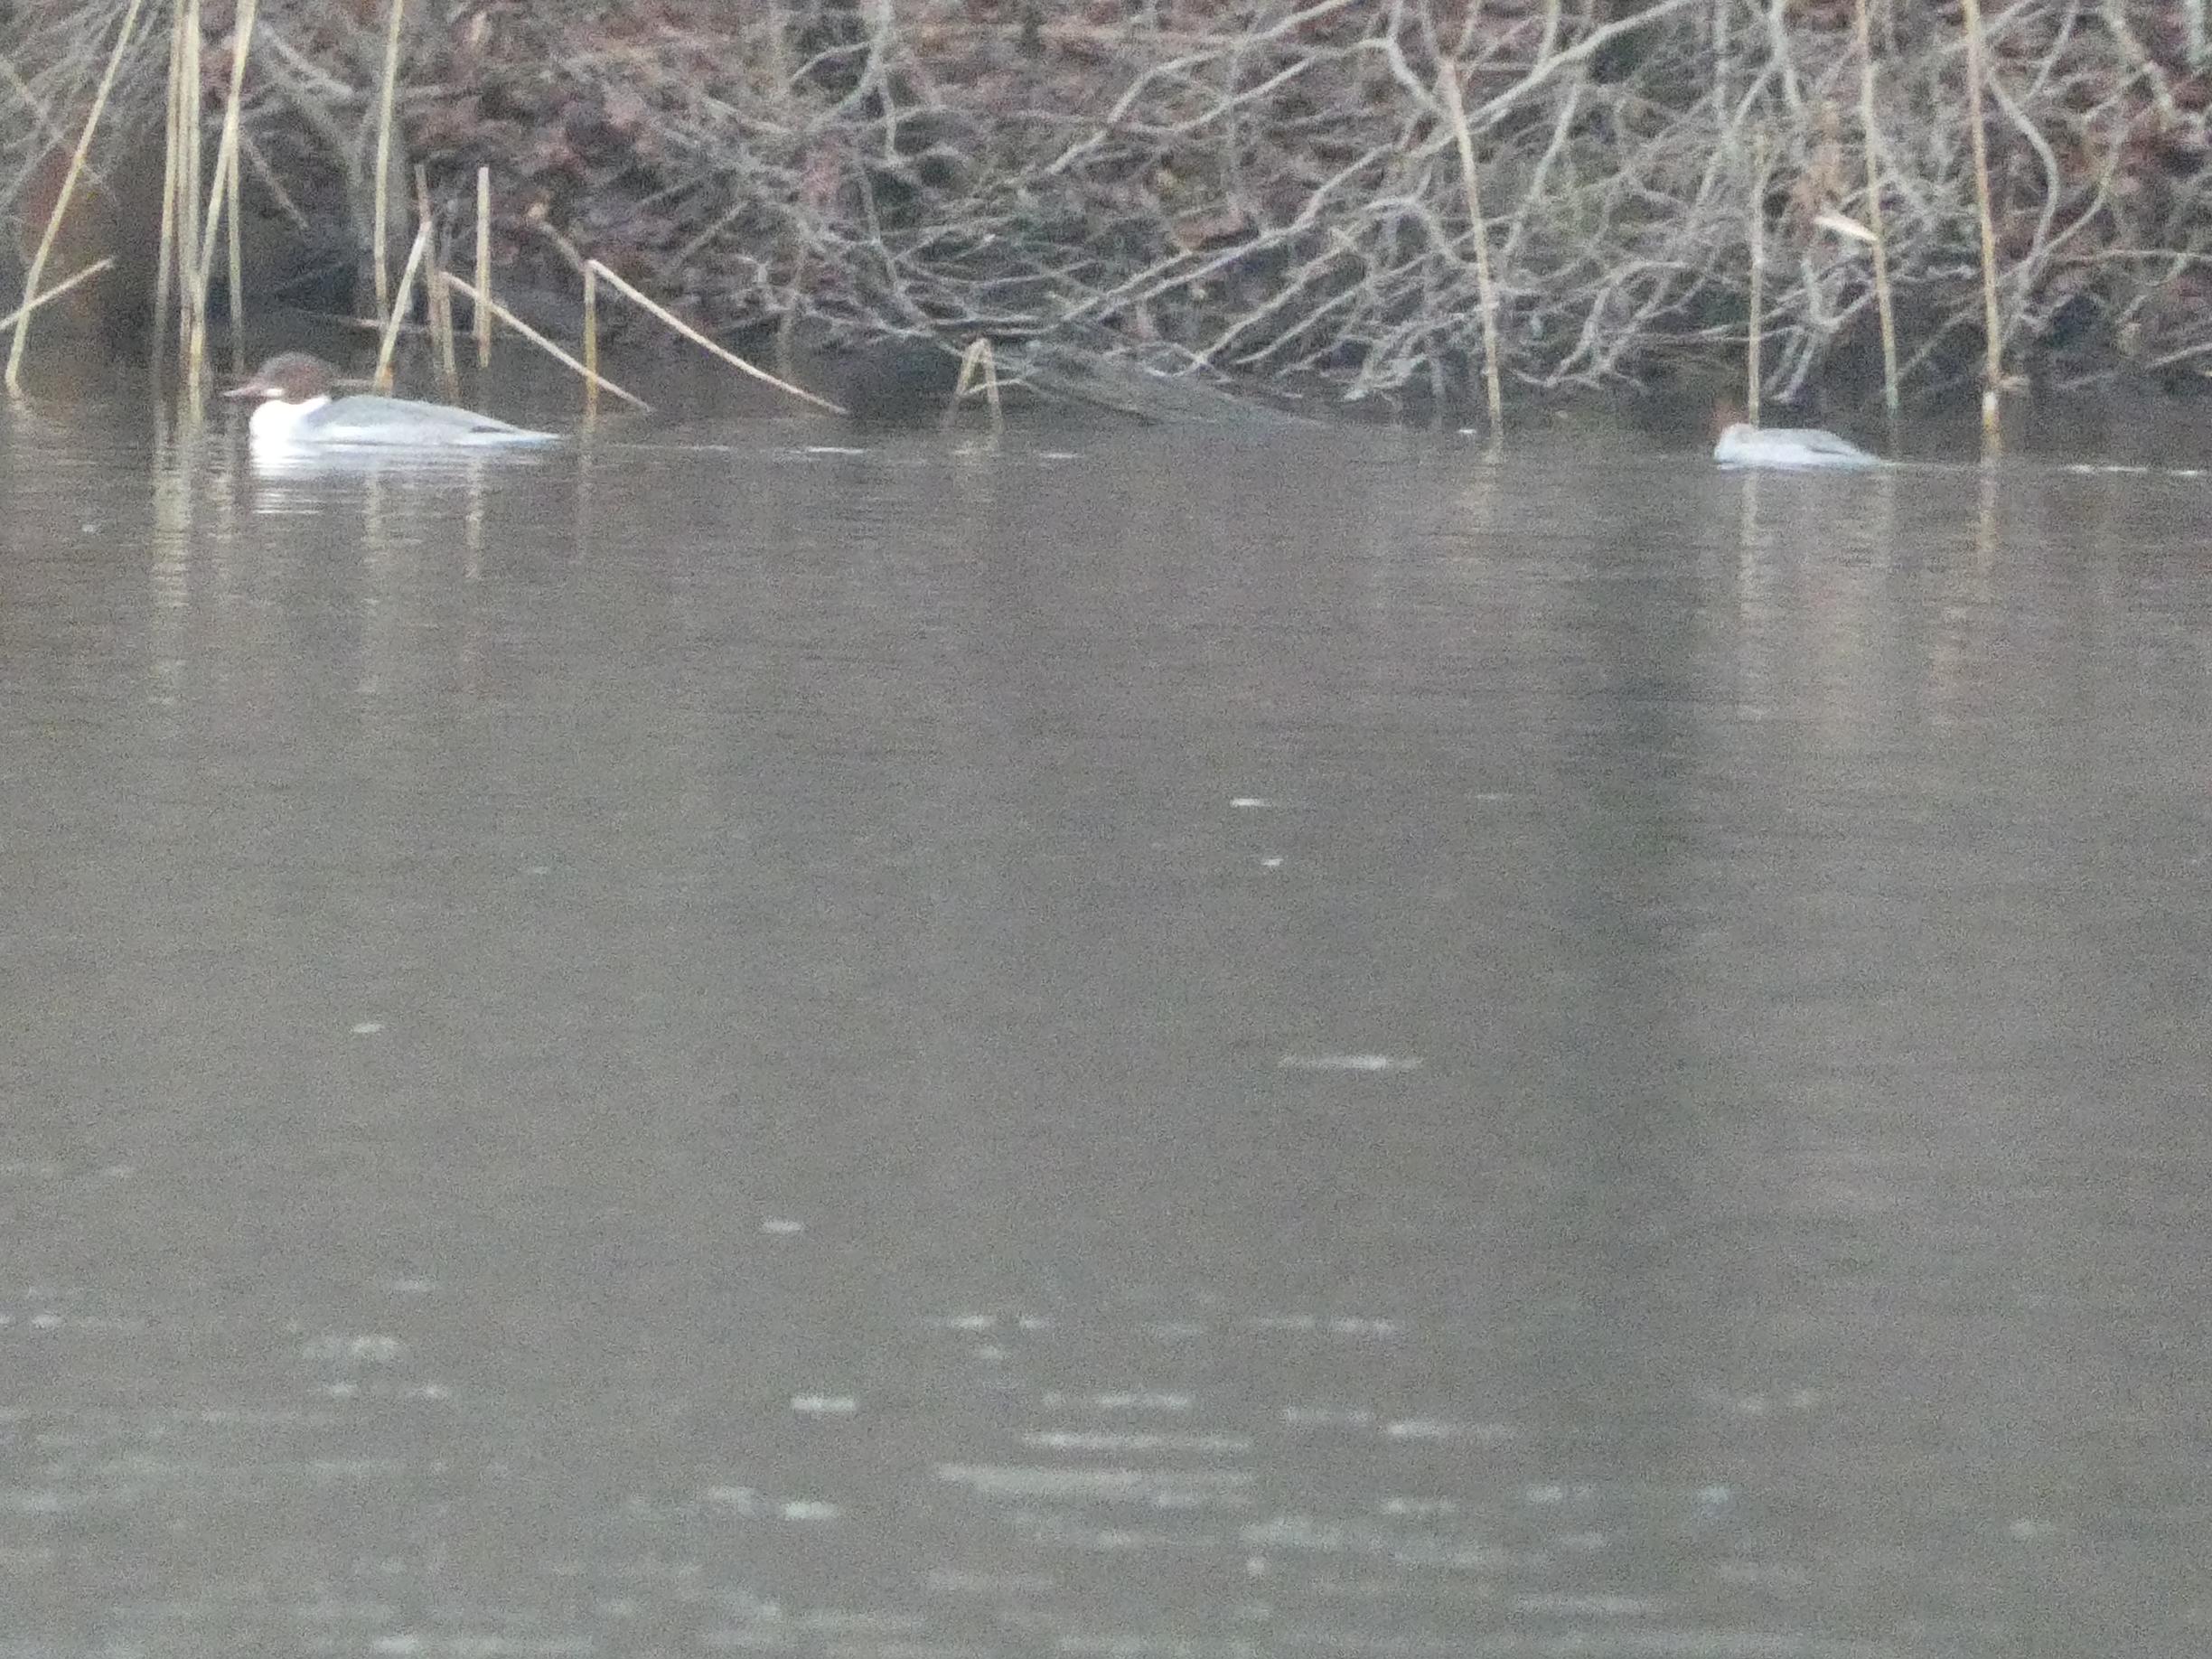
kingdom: Animalia
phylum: Chordata
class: Aves
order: Anseriformes
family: Anatidae
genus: Mergus
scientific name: Mergus merganser
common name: Stor skallesluger
